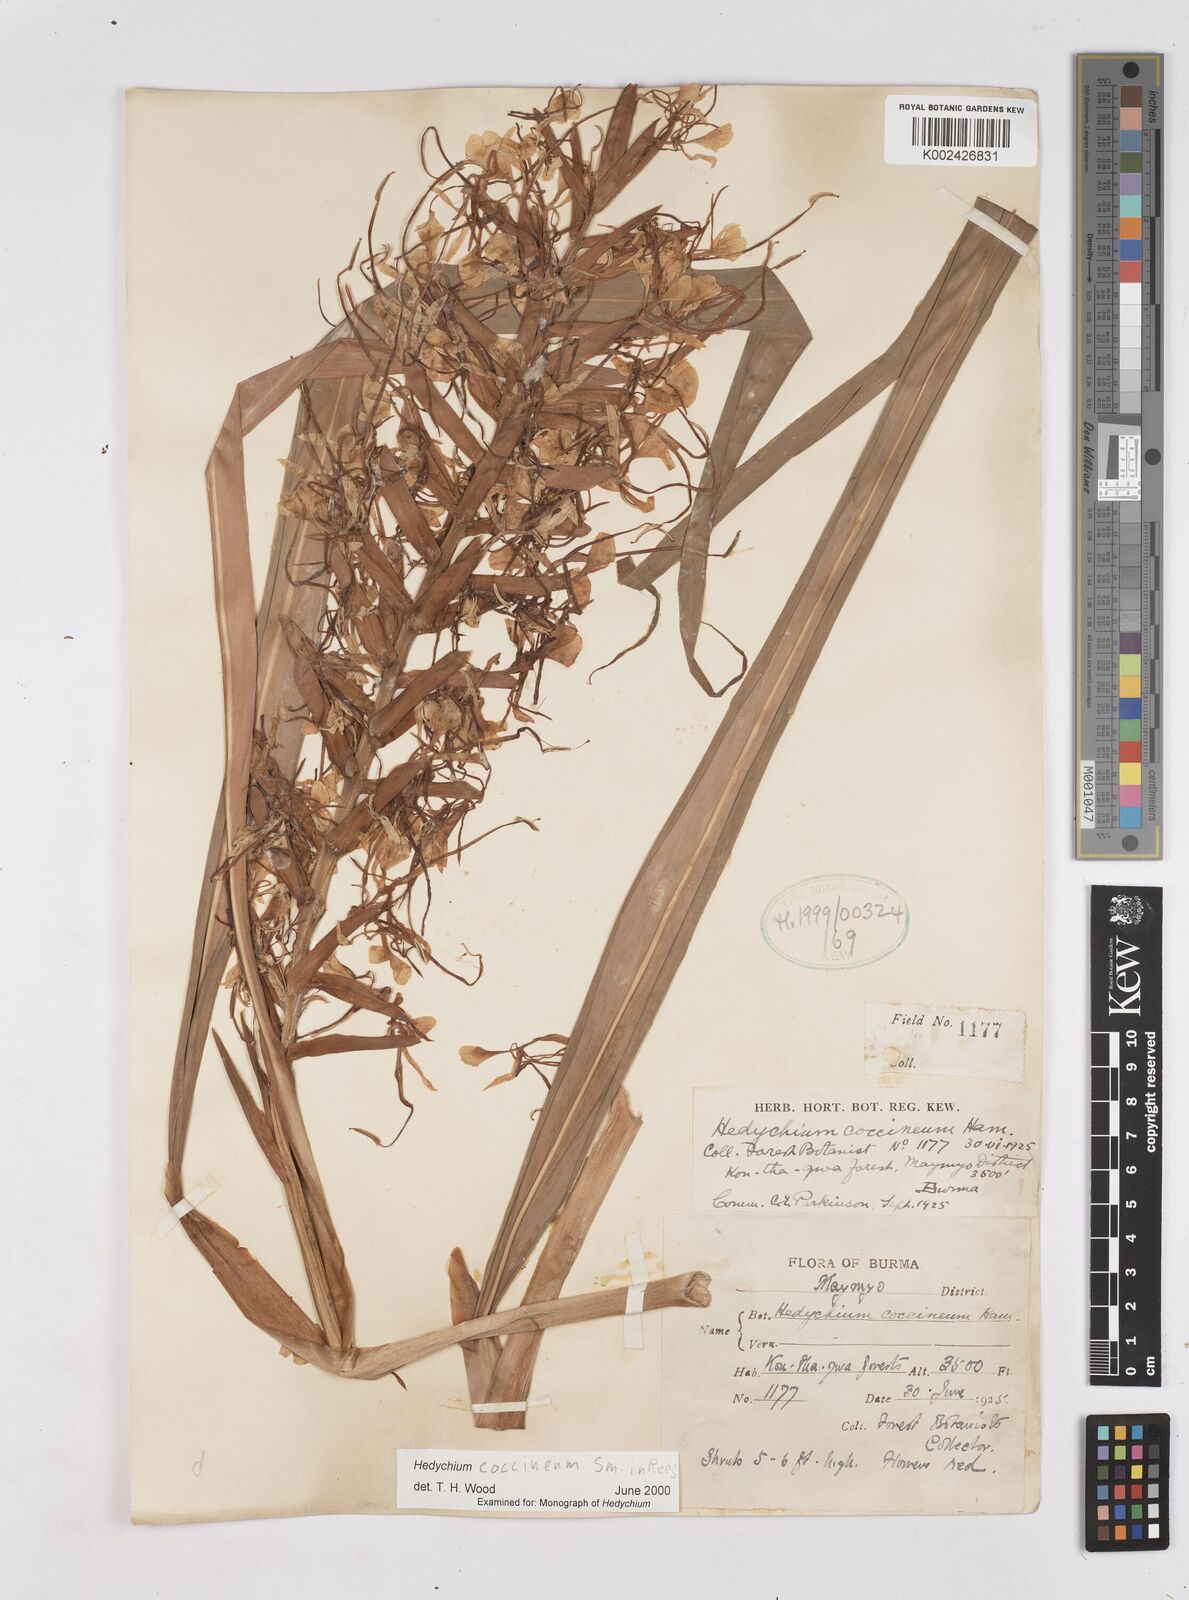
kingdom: Plantae
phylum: Tracheophyta
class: Liliopsida
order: Zingiberales
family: Zingiberaceae
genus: Hedychium
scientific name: Hedychium coccineum
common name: Red ginger-lily
